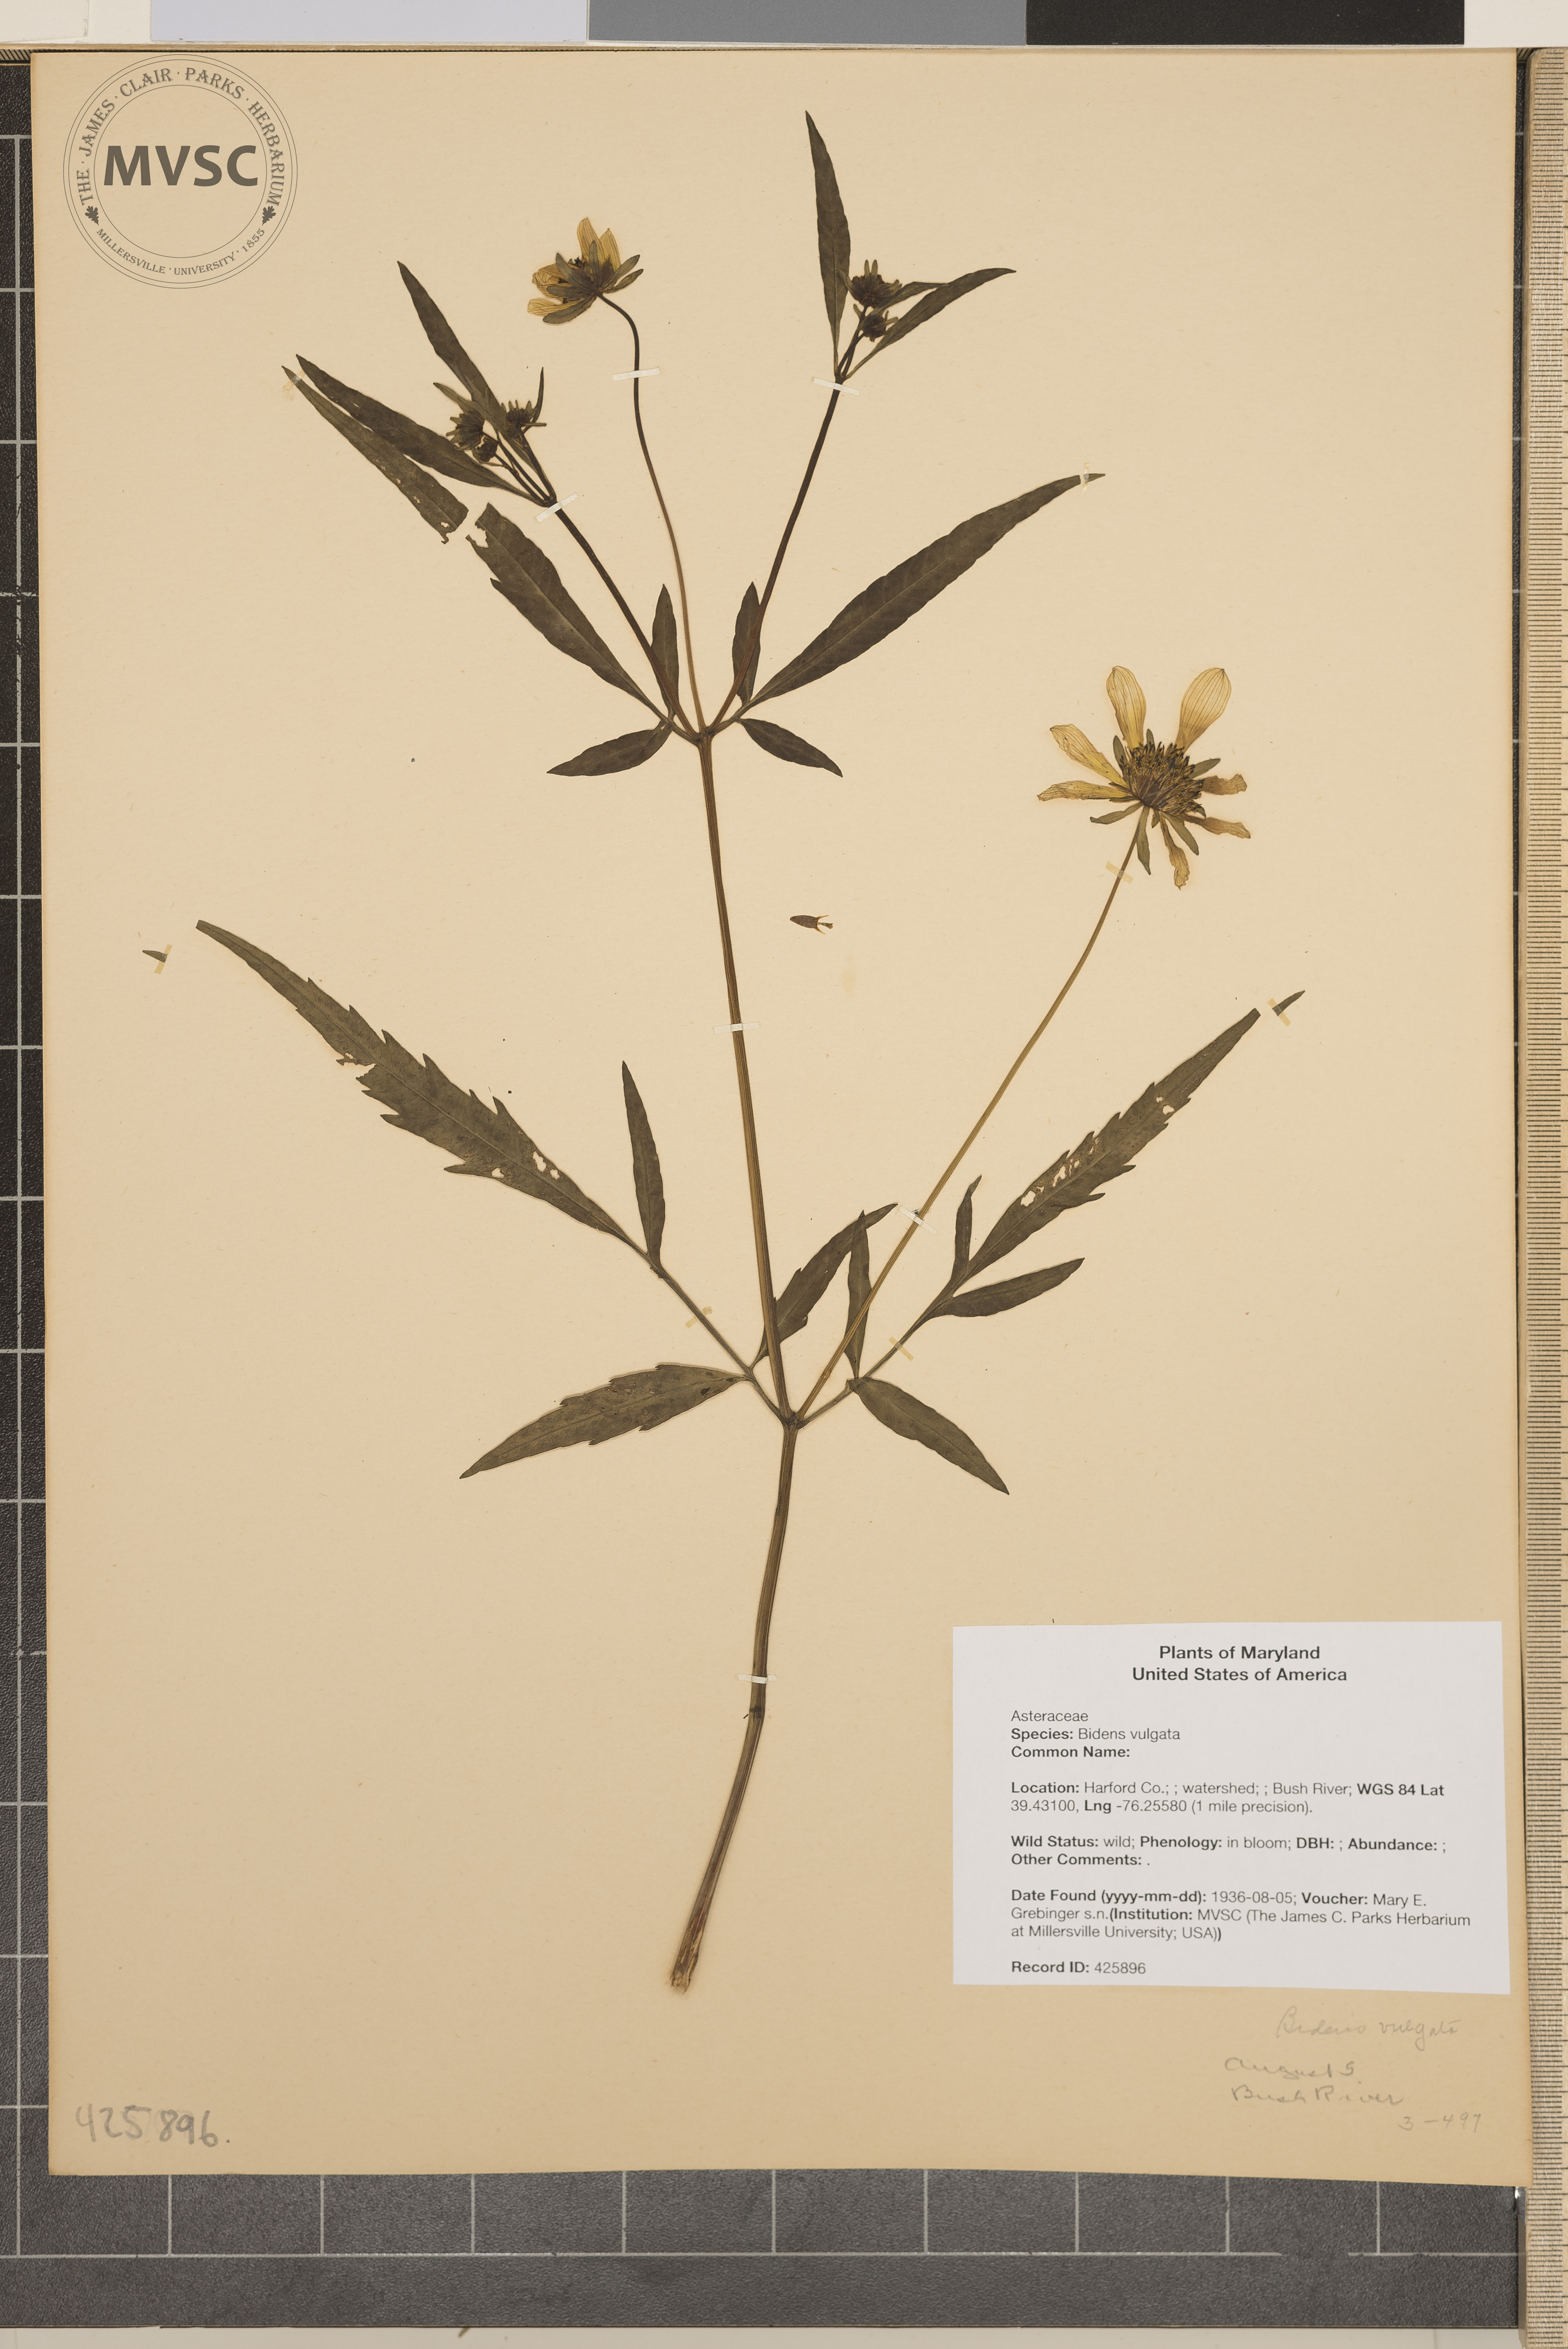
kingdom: Plantae
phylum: Tracheophyta
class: Magnoliopsida
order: Asterales
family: Asteraceae
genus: Bidens
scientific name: Bidens vulgata
